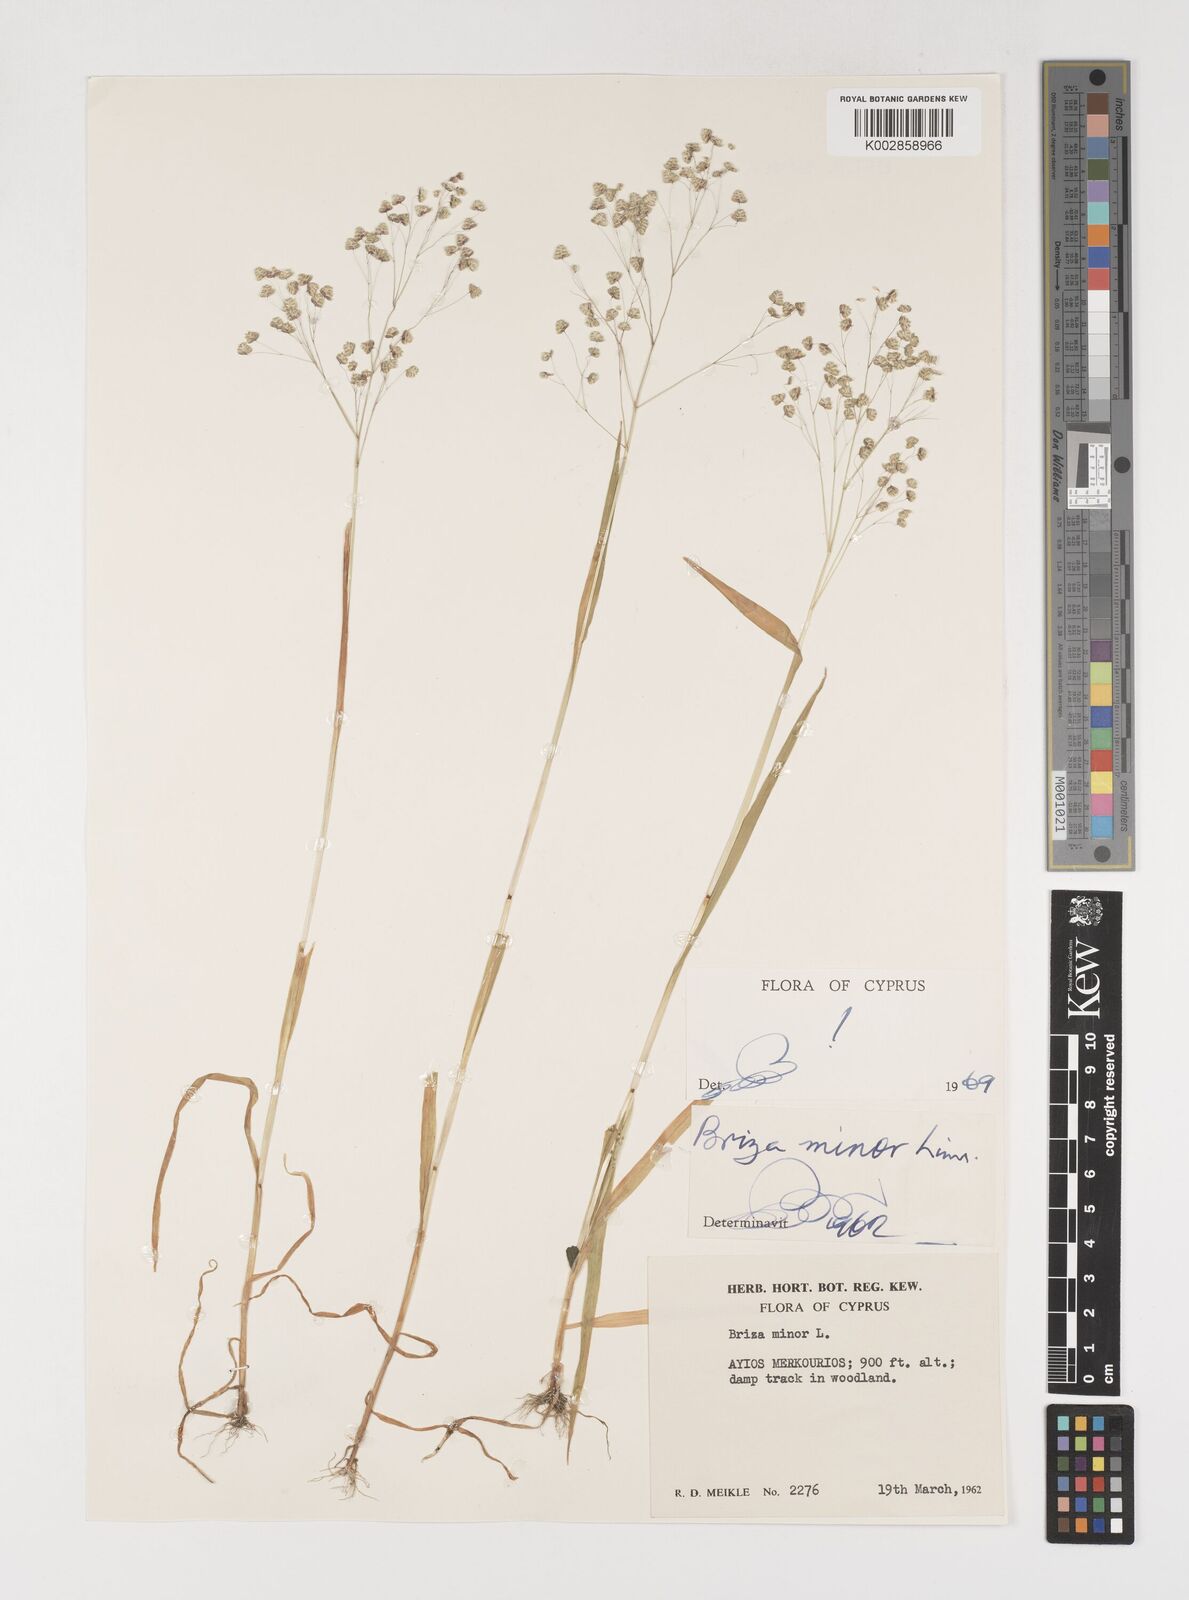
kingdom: Plantae
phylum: Tracheophyta
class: Liliopsida
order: Poales
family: Poaceae
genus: Briza
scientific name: Briza minor
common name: Lesser quaking-grass
